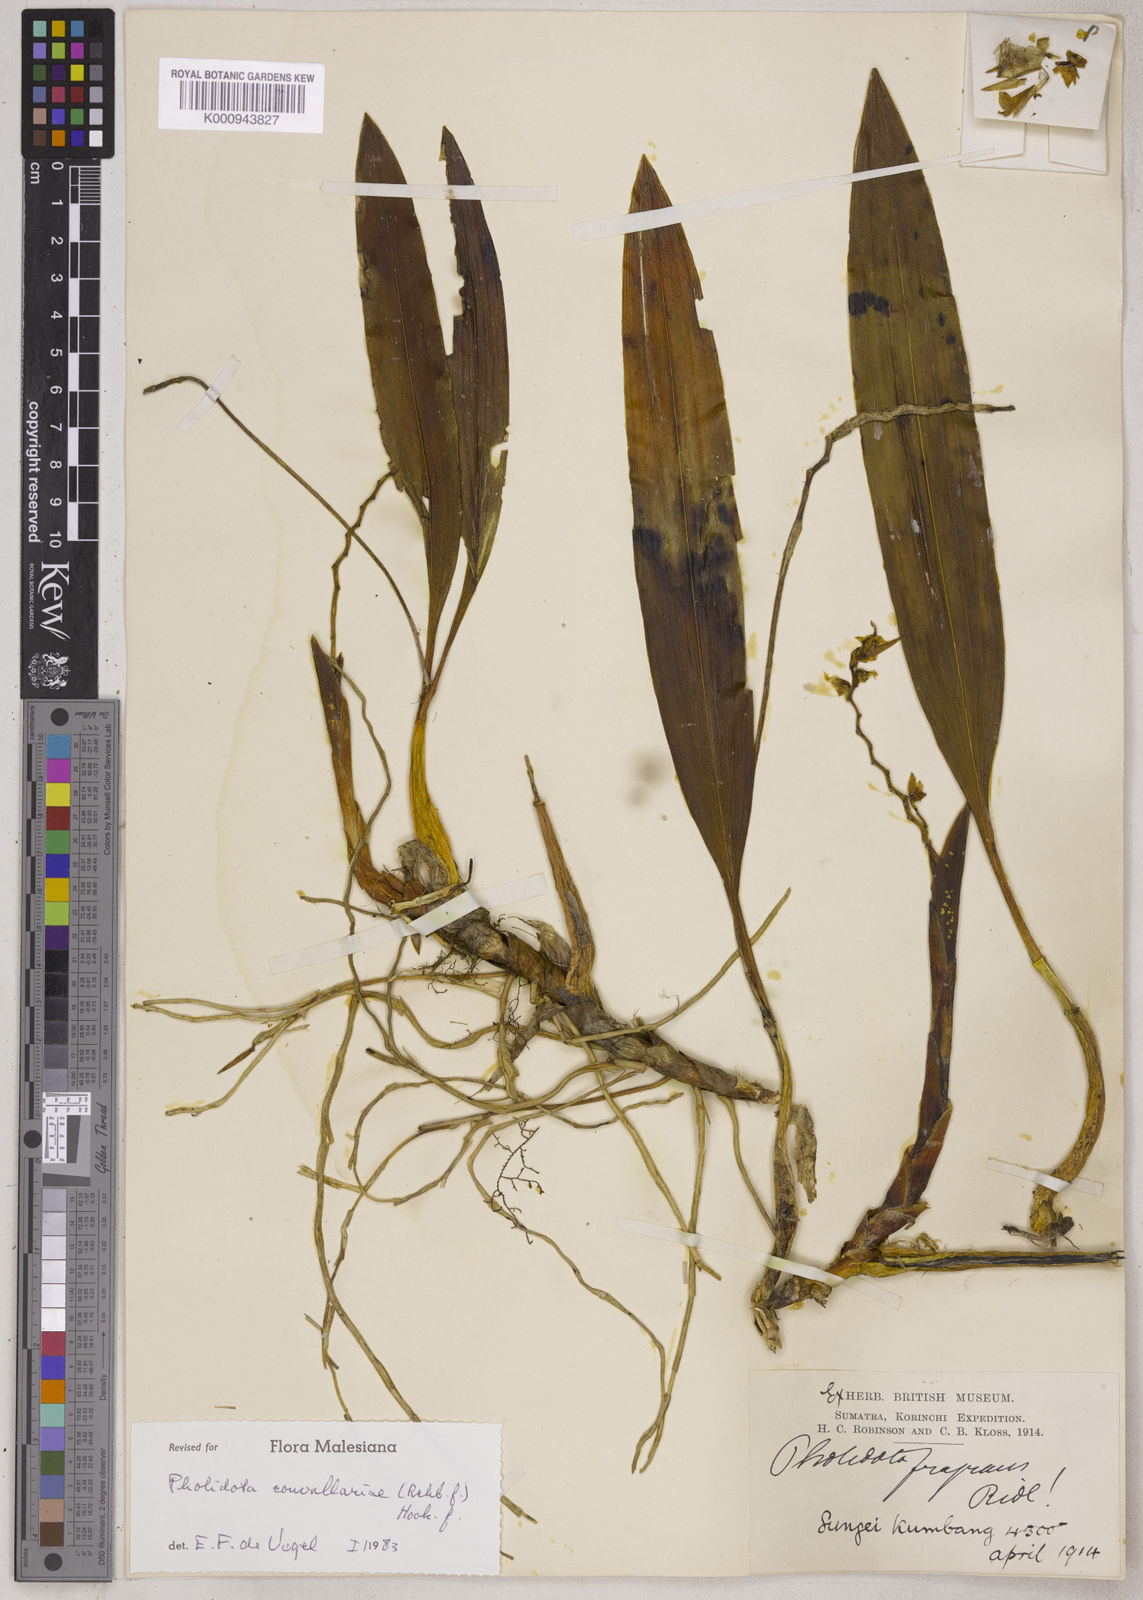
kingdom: Plantae
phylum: Tracheophyta
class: Liliopsida
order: Asparagales
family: Orchidaceae
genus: Coelogyne
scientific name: Coelogyne convallariae
